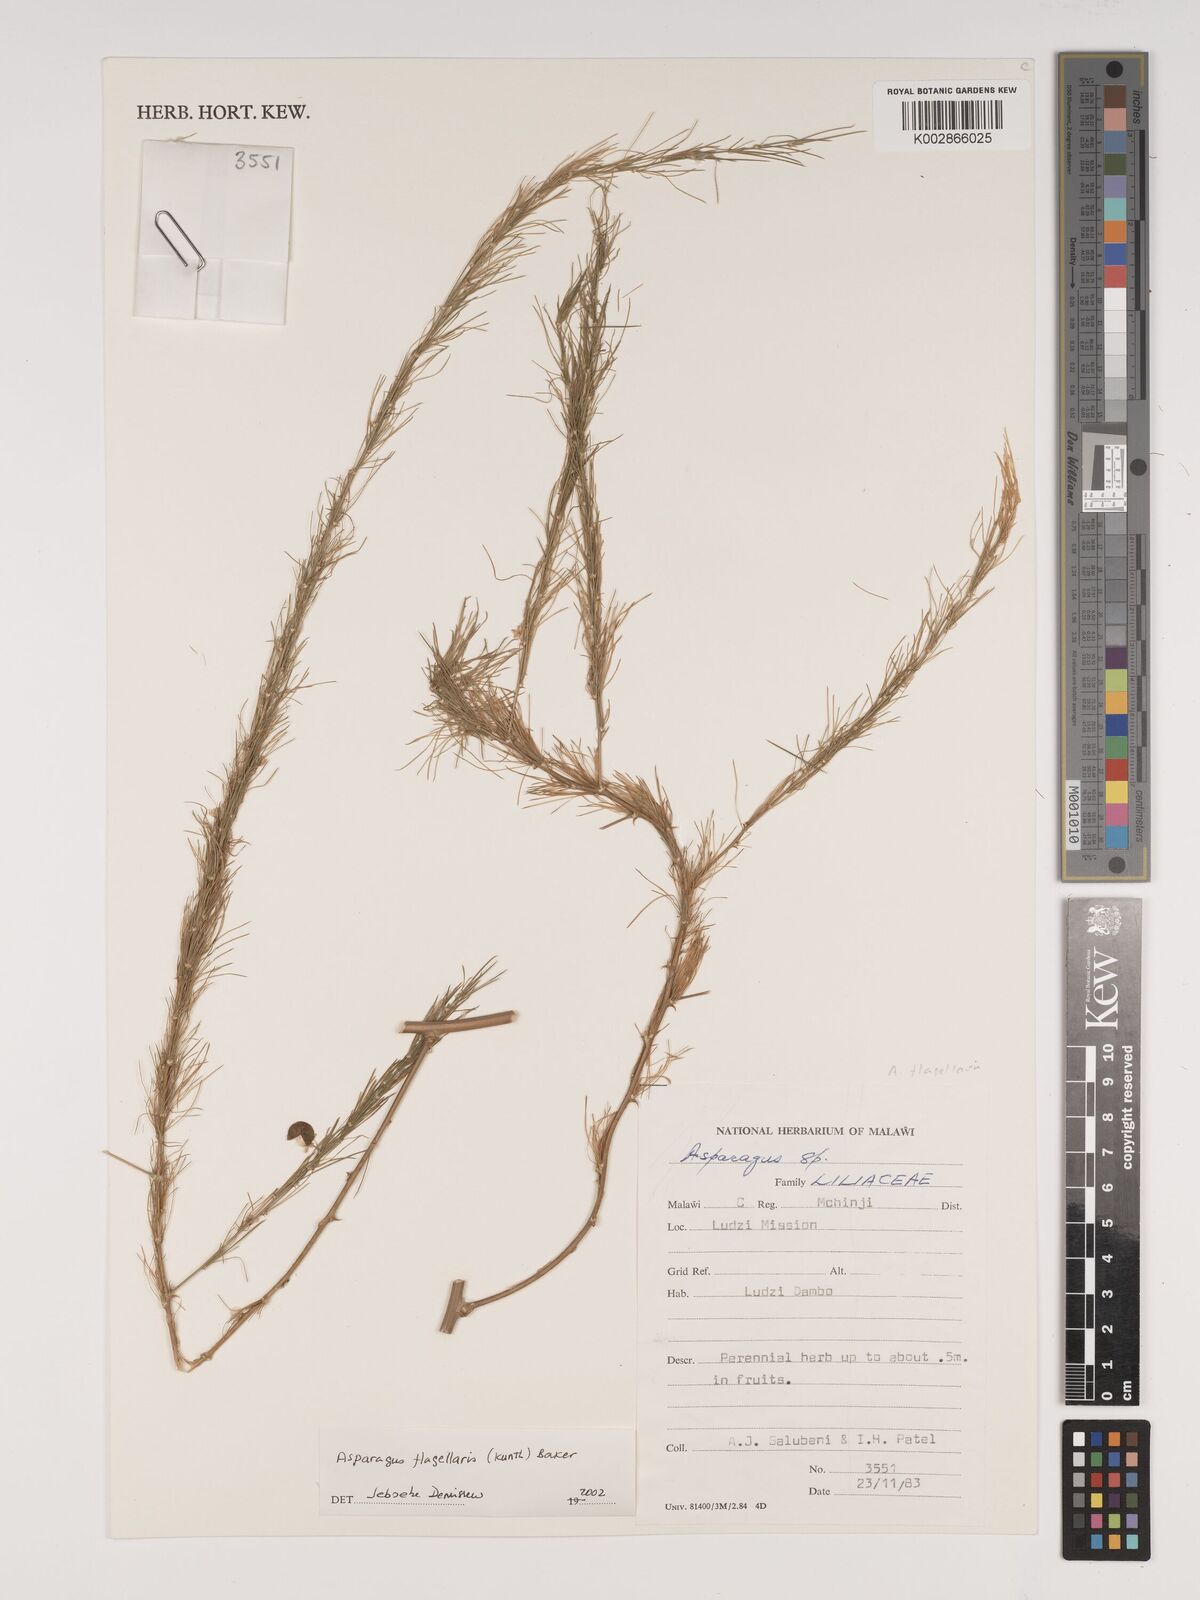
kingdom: Plantae
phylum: Tracheophyta
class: Liliopsida
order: Asparagales
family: Asparagaceae
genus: Asparagus
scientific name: Asparagus flagellaris
